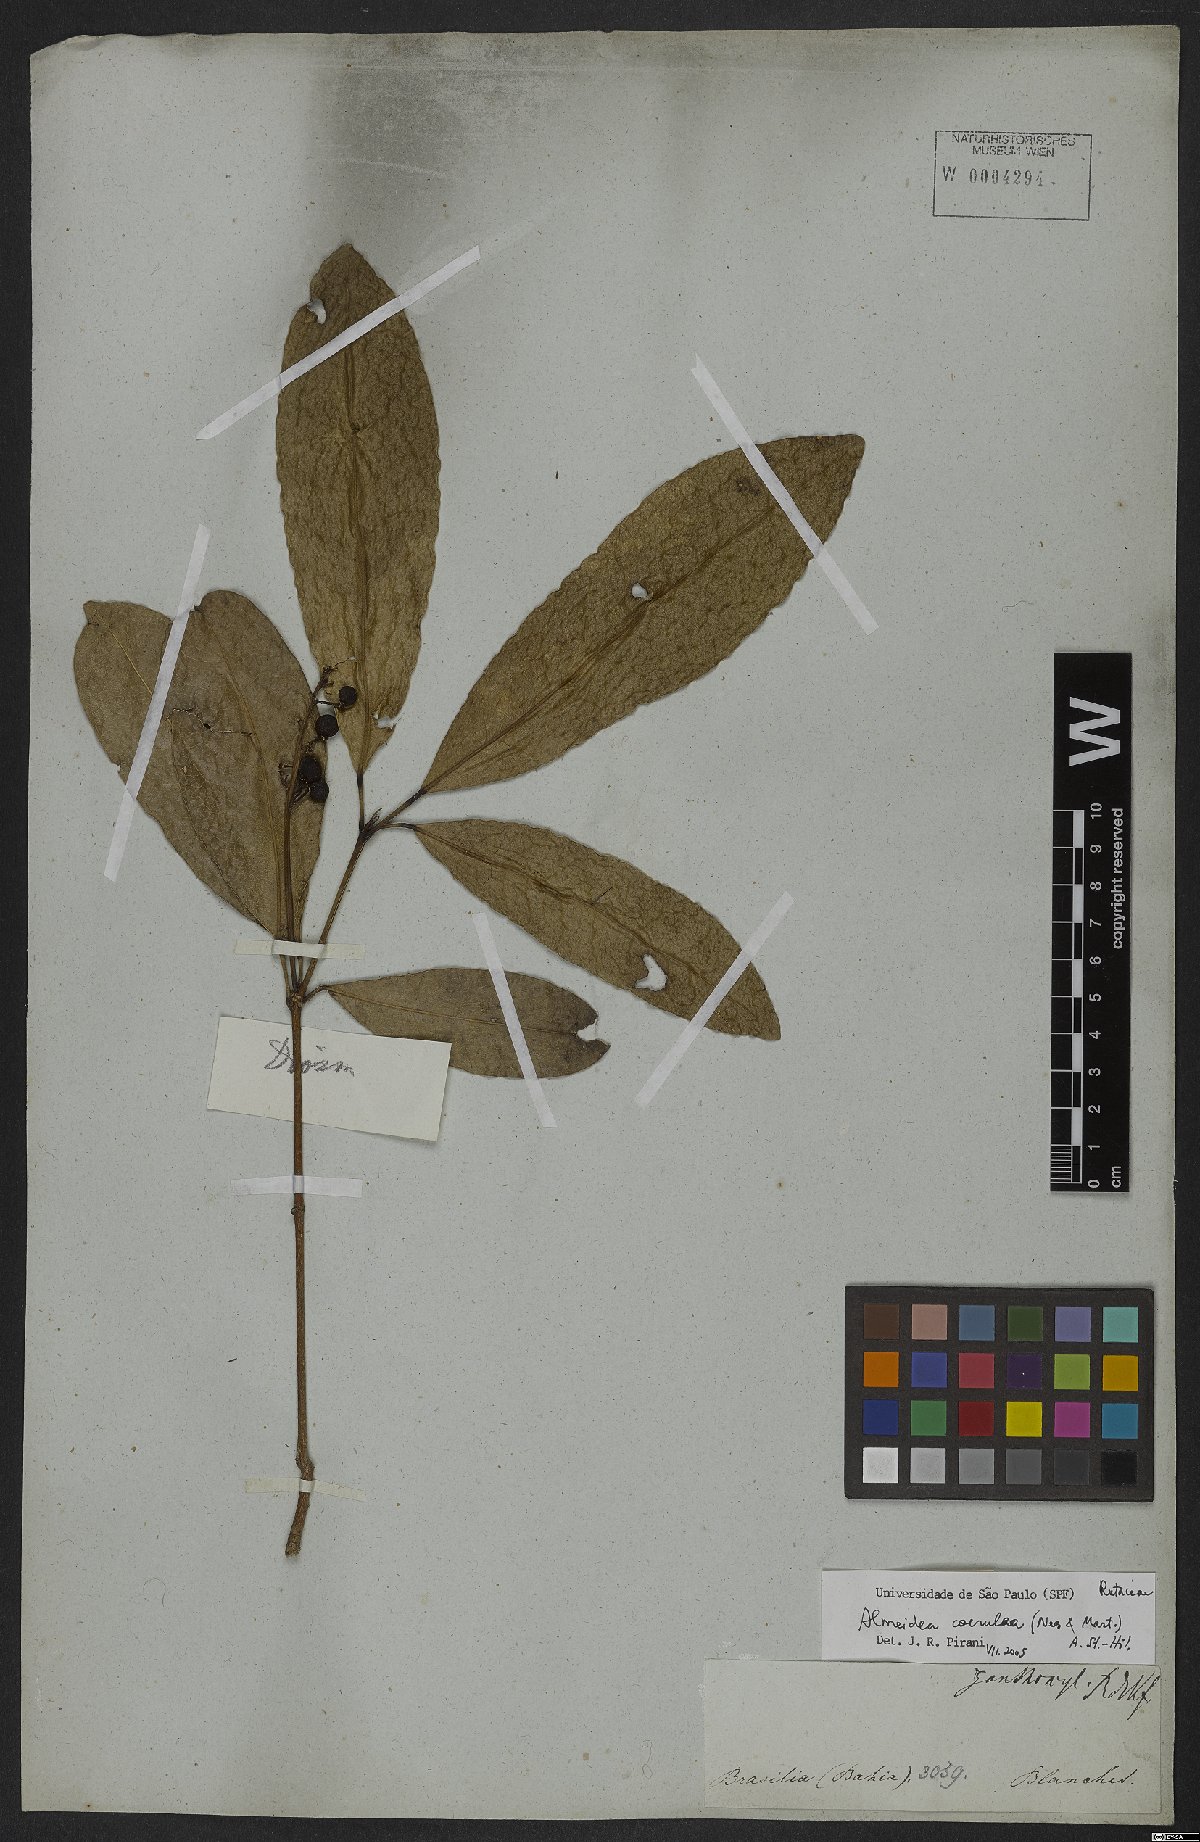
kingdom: Plantae
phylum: Tracheophyta
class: Magnoliopsida
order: Sapindales
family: Rutaceae
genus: Conchocarpus
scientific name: Conchocarpus coeruleus
